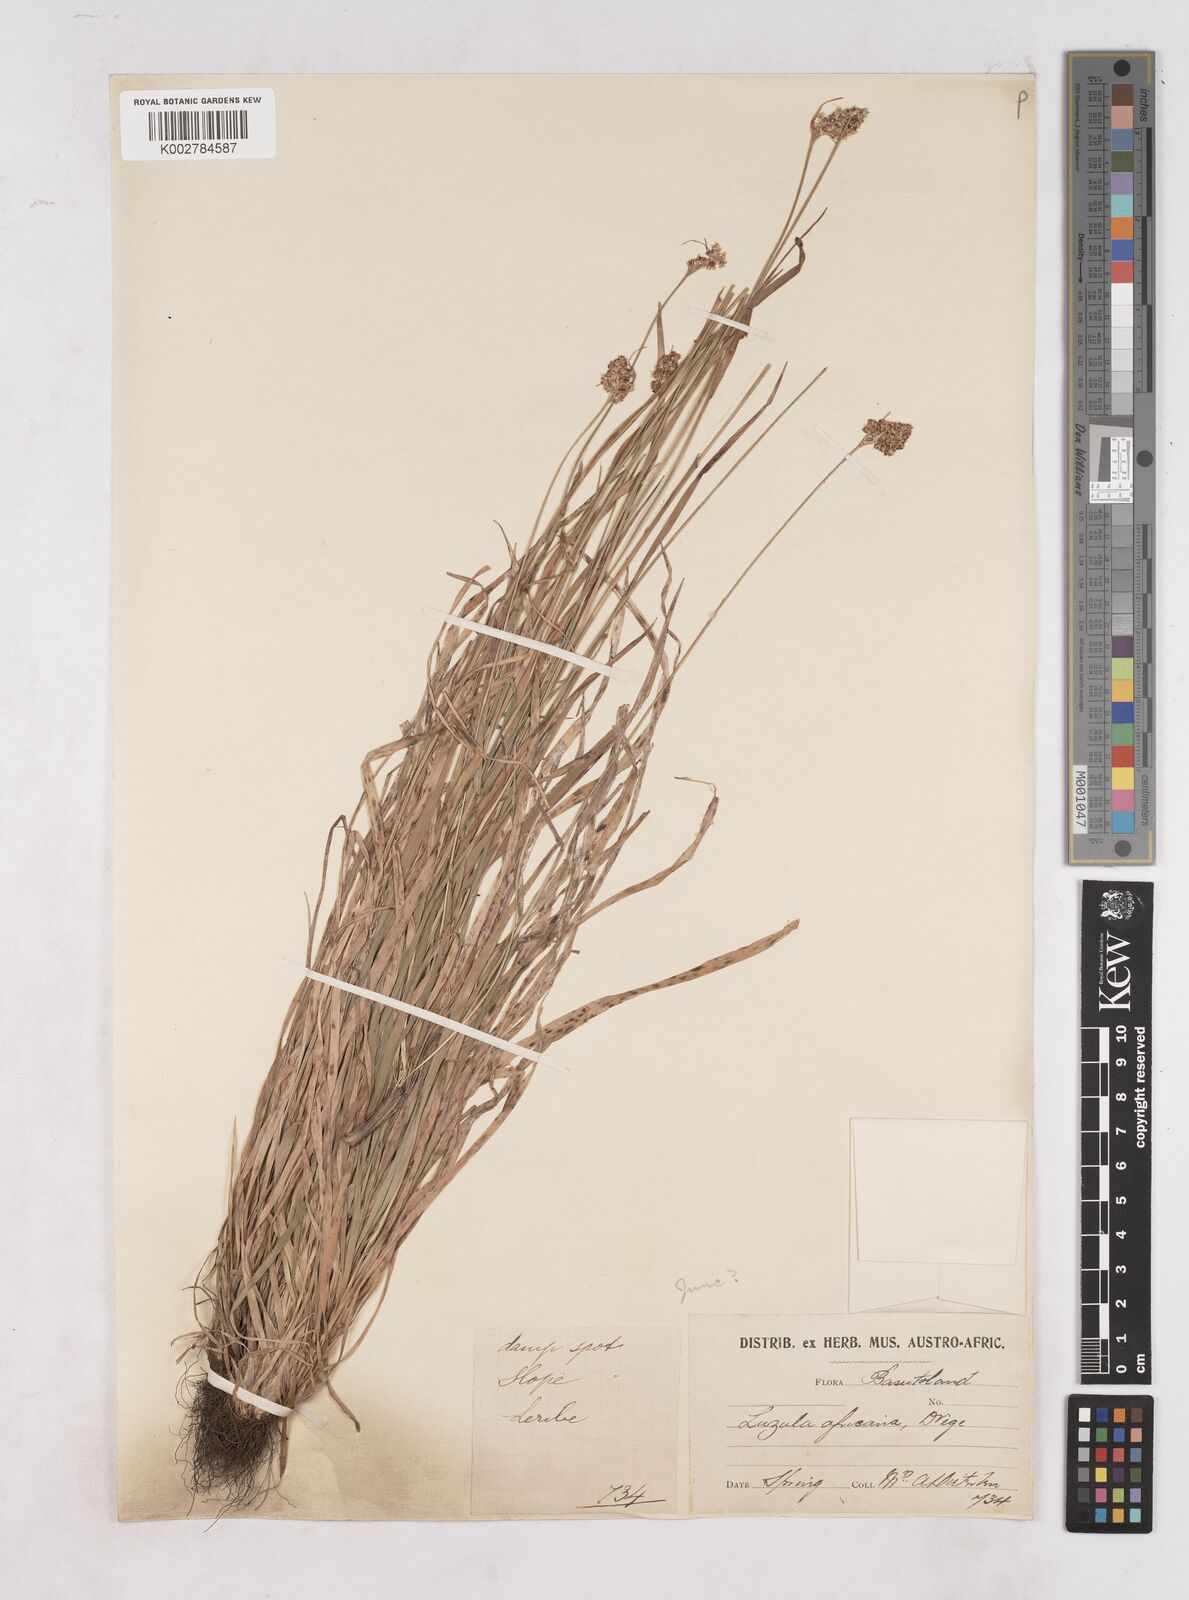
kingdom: Plantae
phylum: Tracheophyta
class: Liliopsida
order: Poales
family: Juncaceae
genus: Luzula
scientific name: Luzula africana
